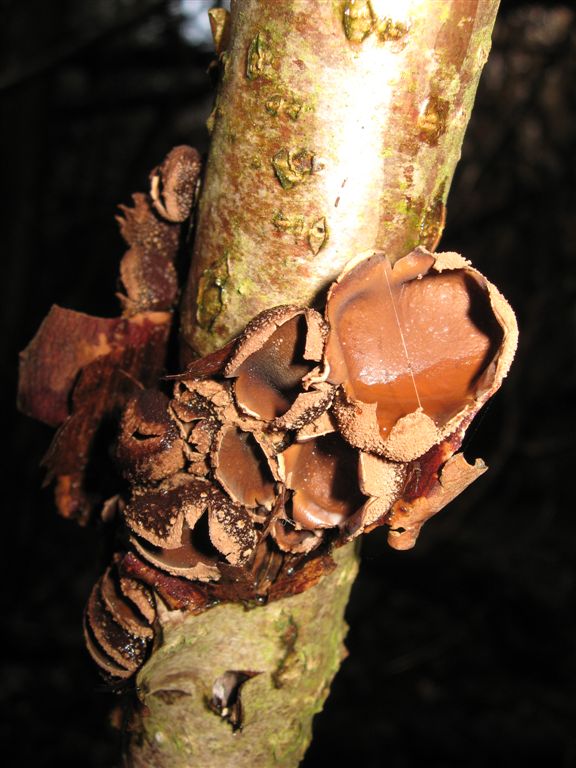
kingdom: Fungi
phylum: Ascomycota
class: Leotiomycetes
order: Helotiales
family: Cenangiaceae
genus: Encoelia
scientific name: Encoelia furfuracea
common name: hassel-læderskive
